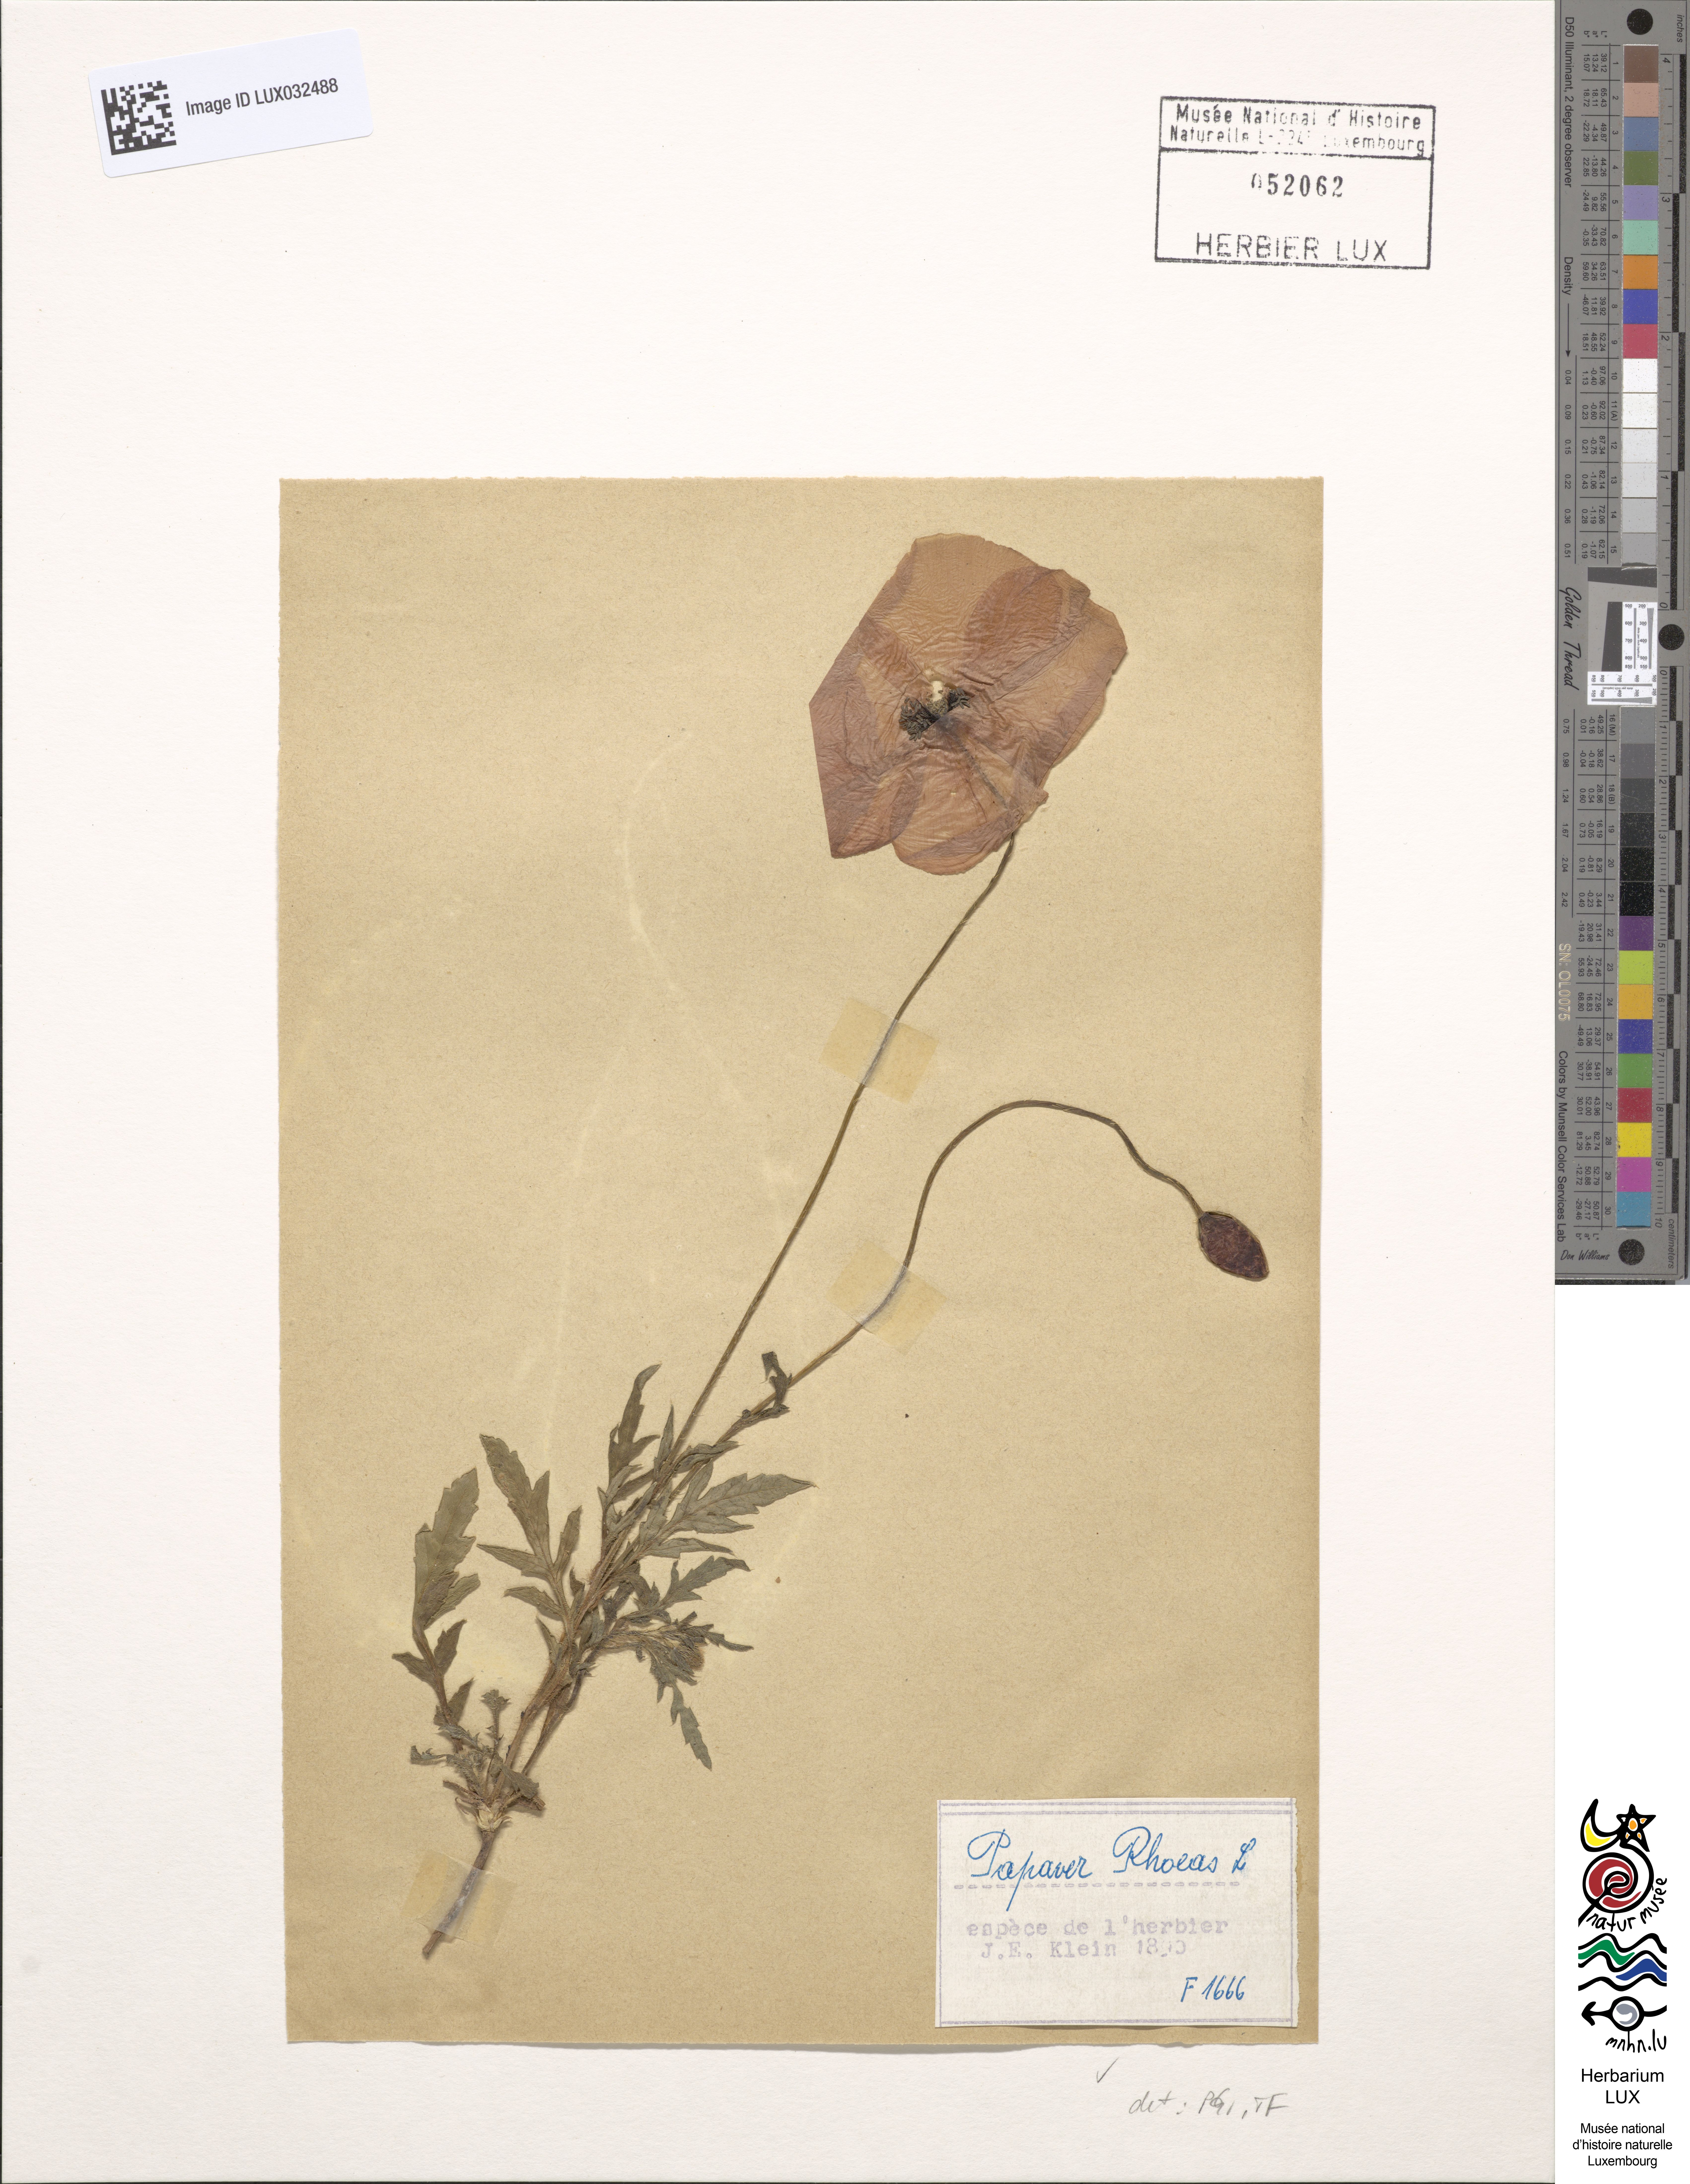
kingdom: Plantae
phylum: Tracheophyta
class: Magnoliopsida
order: Ranunculales
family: Papaveraceae
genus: Papaver
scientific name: Papaver rhoeas
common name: Corn poppy
